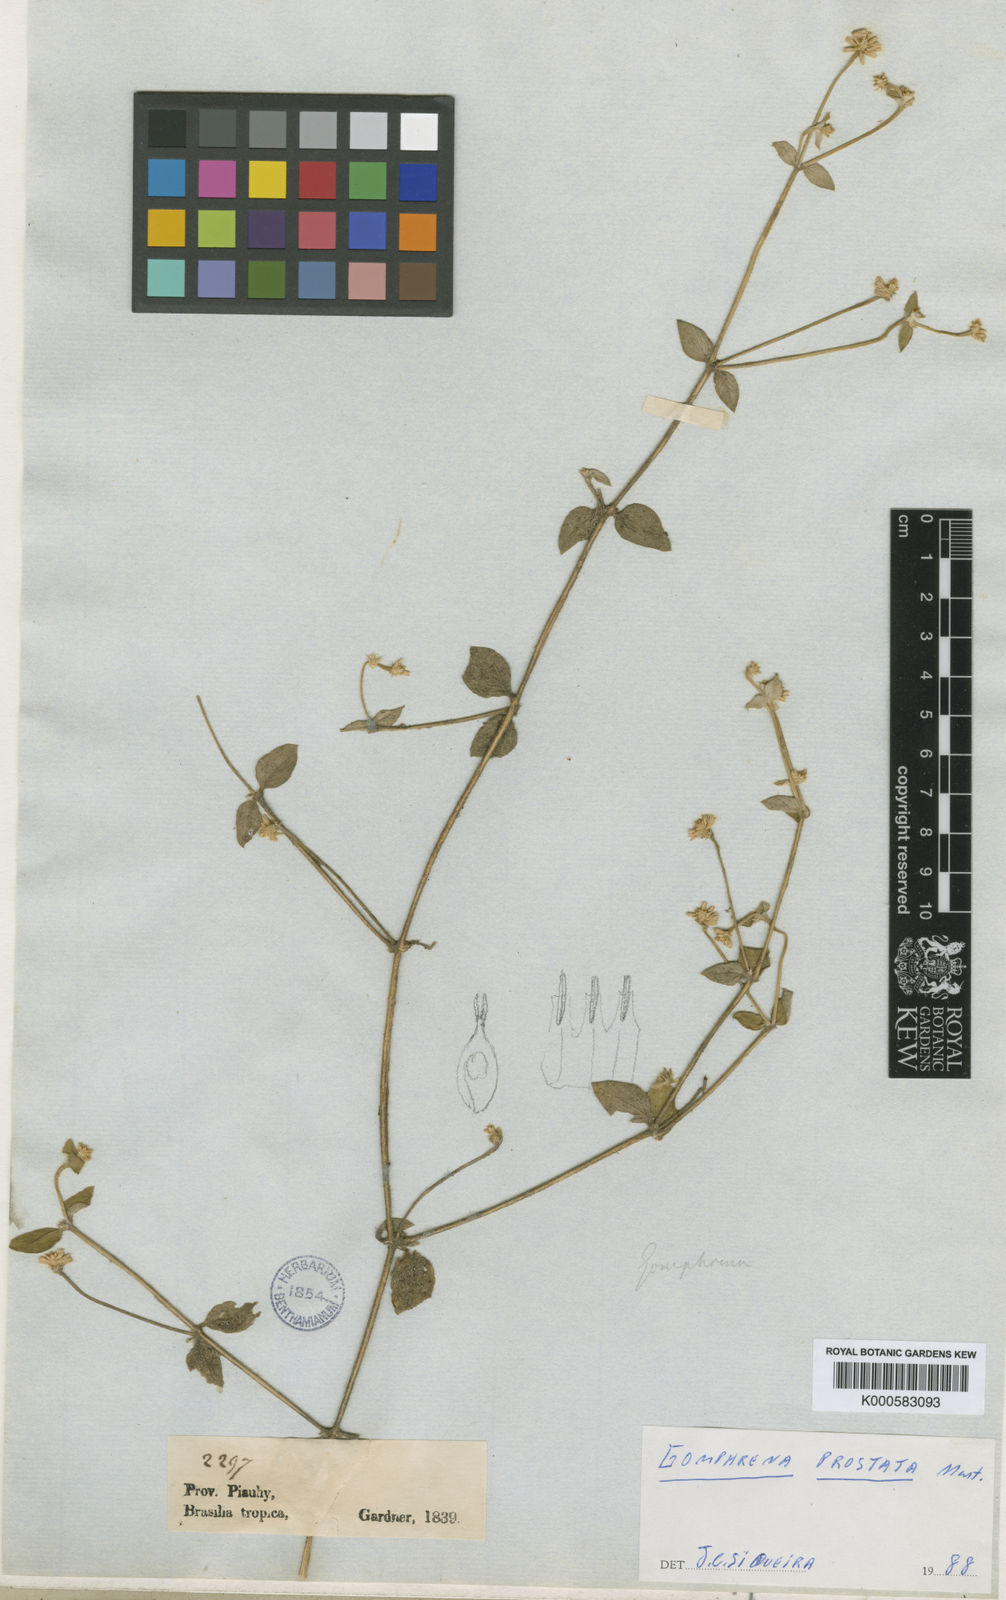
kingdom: Plantae
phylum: Tracheophyta
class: Magnoliopsida
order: Caryophyllales
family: Amaranthaceae
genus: Gomphrena
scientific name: Gomphrena prostrata
